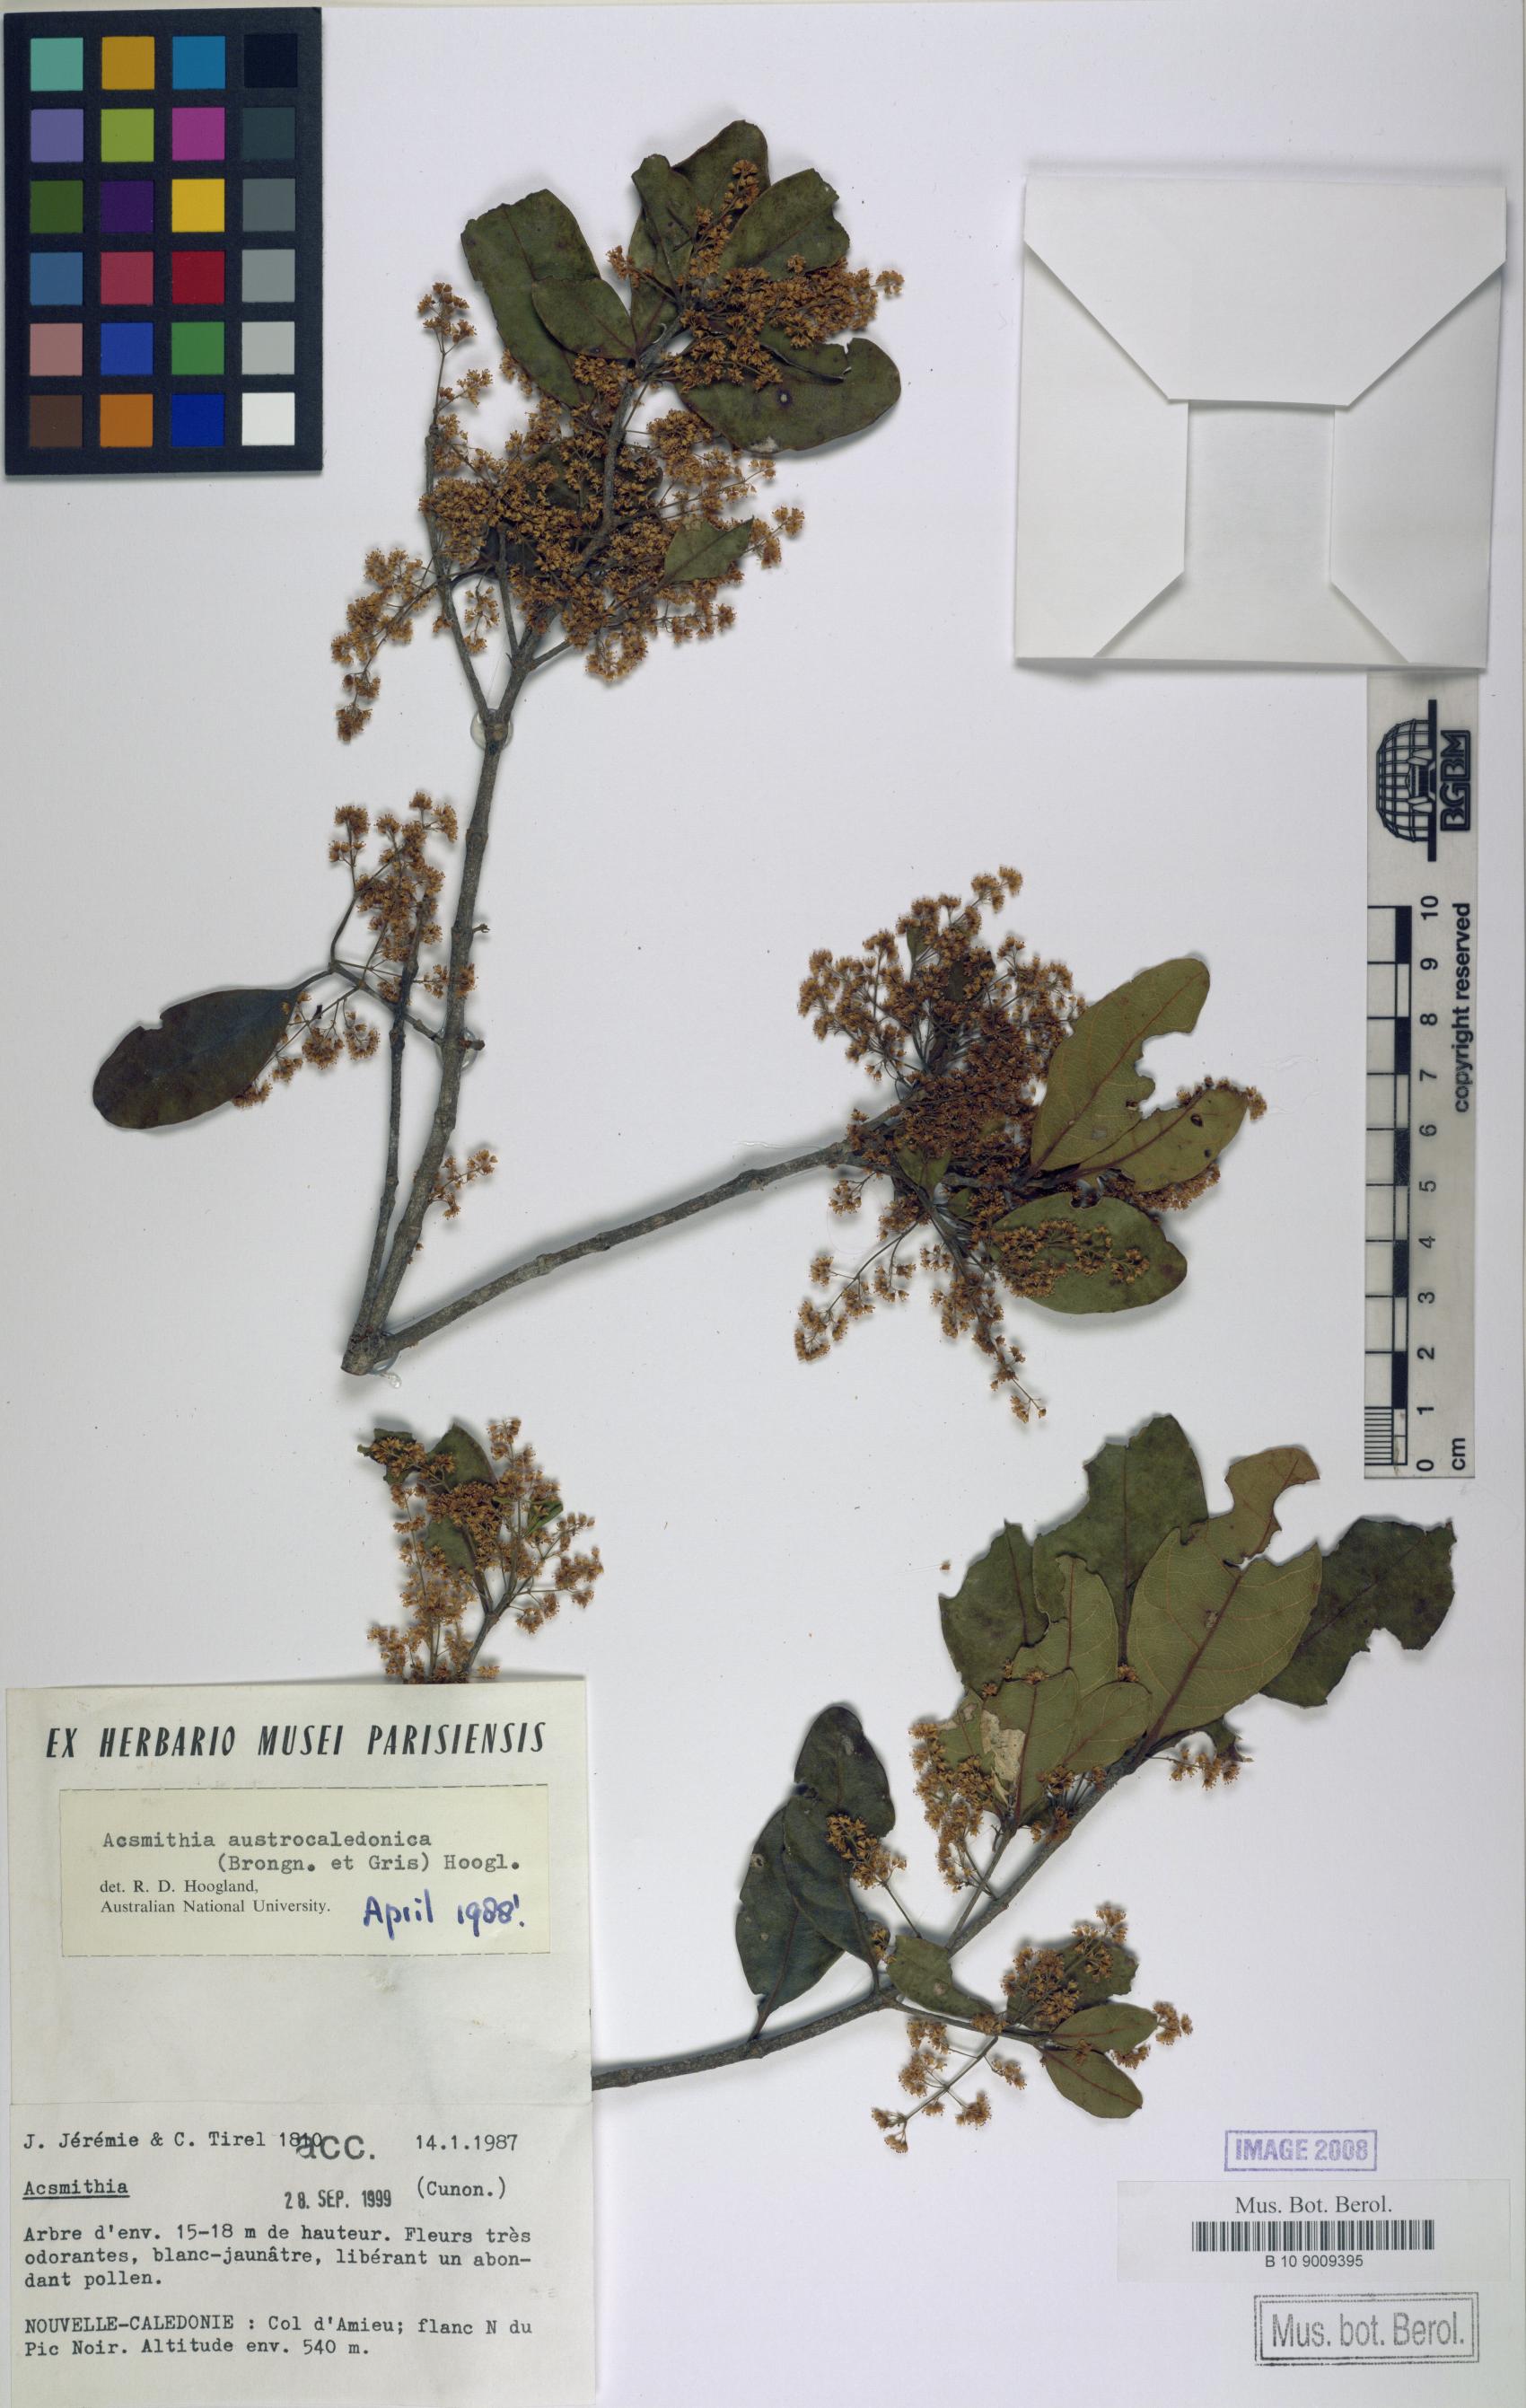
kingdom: Plantae
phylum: Tracheophyta
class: Magnoliopsida
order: Oxalidales
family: Cunoniaceae
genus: Spiraeanthemum
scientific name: Spiraeanthemum densiflorum
